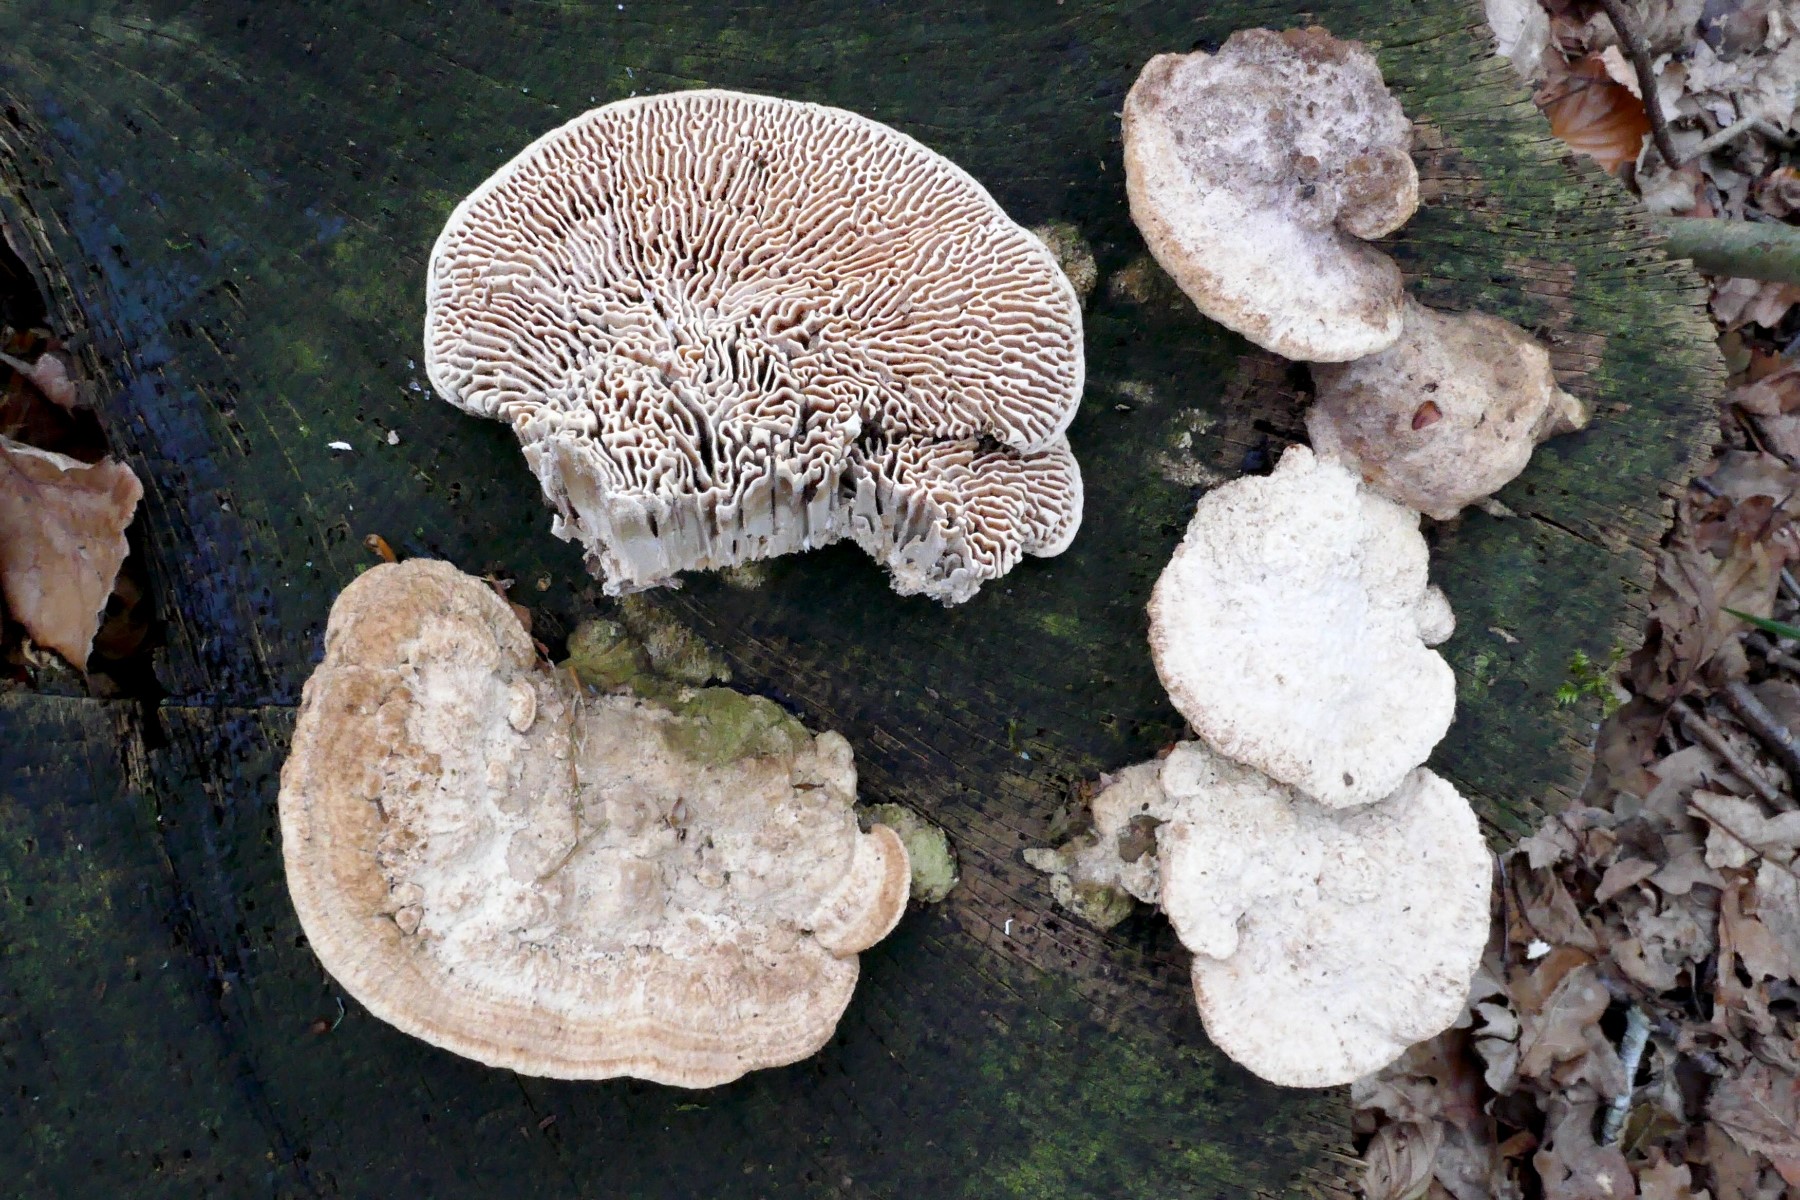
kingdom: Fungi
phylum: Basidiomycota
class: Agaricomycetes
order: Polyporales
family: Fomitopsidaceae
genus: Daedalea
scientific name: Daedalea quercina
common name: ege-labyrintsvamp
